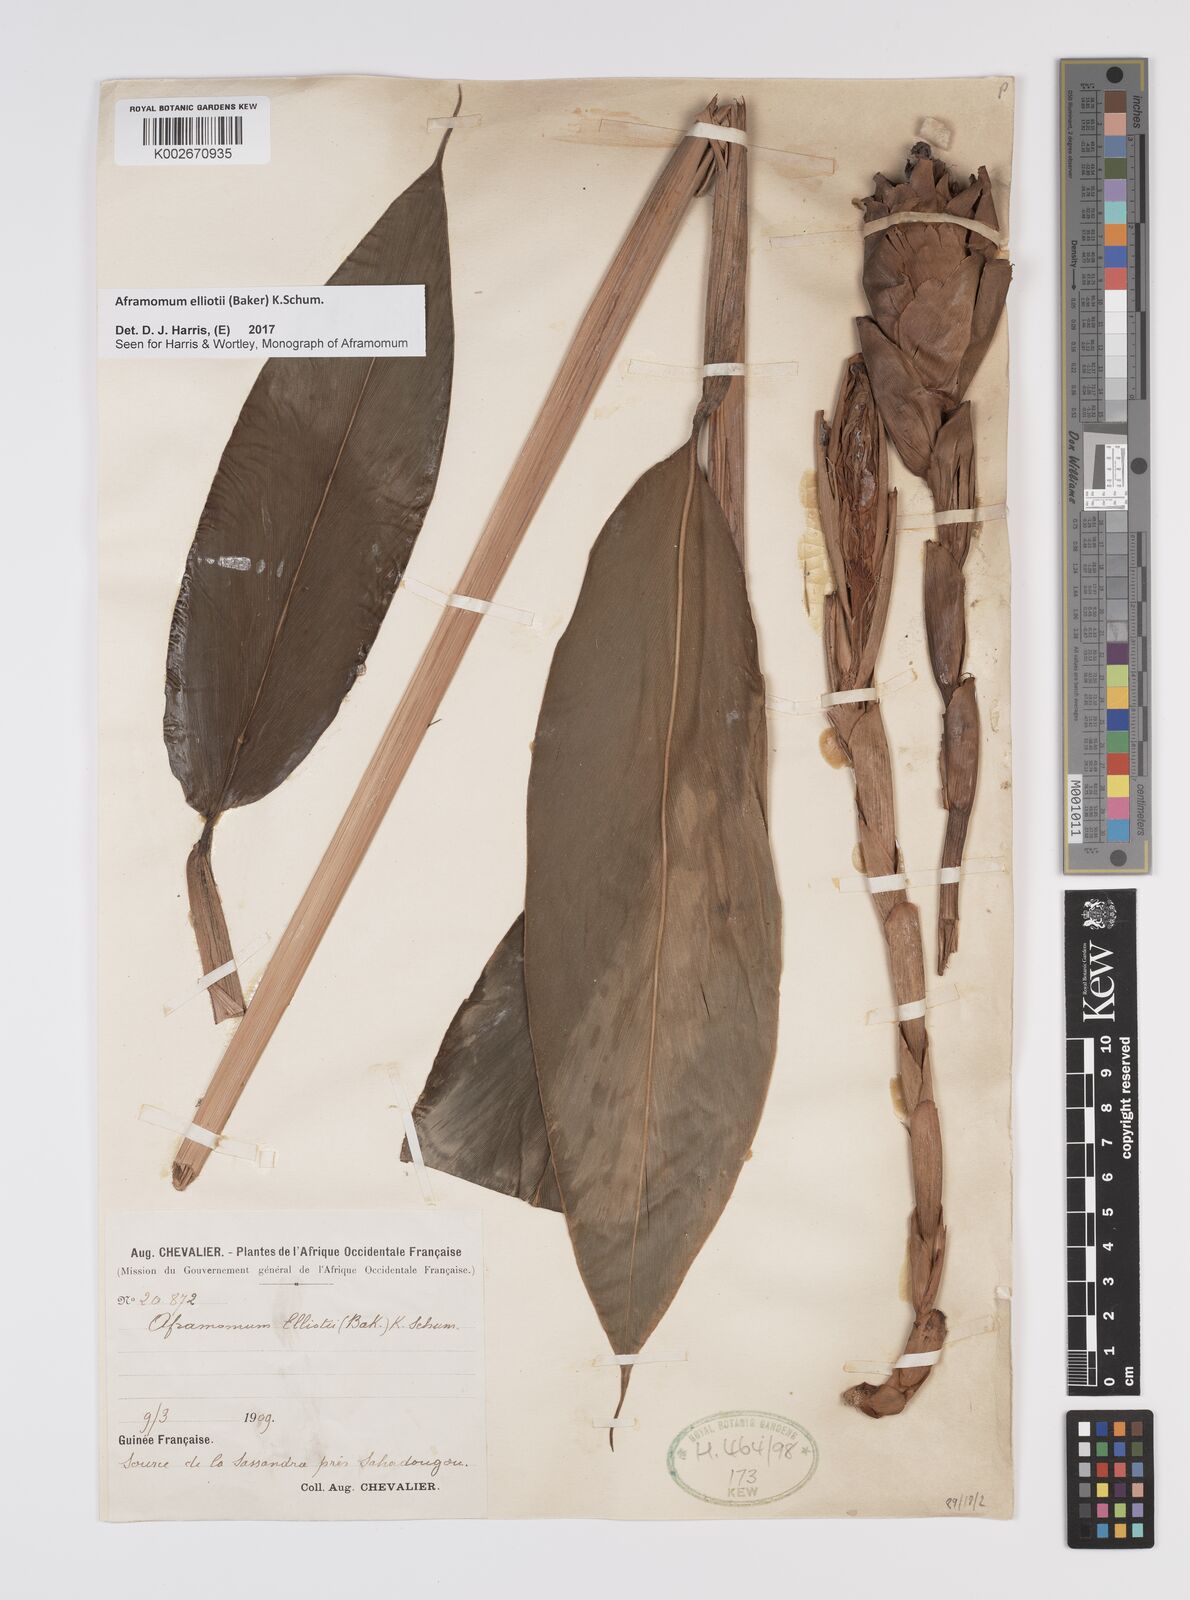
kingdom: Plantae
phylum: Tracheophyta
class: Liliopsida
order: Zingiberales
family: Zingiberaceae
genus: Aframomum
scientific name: Aframomum elliottii
